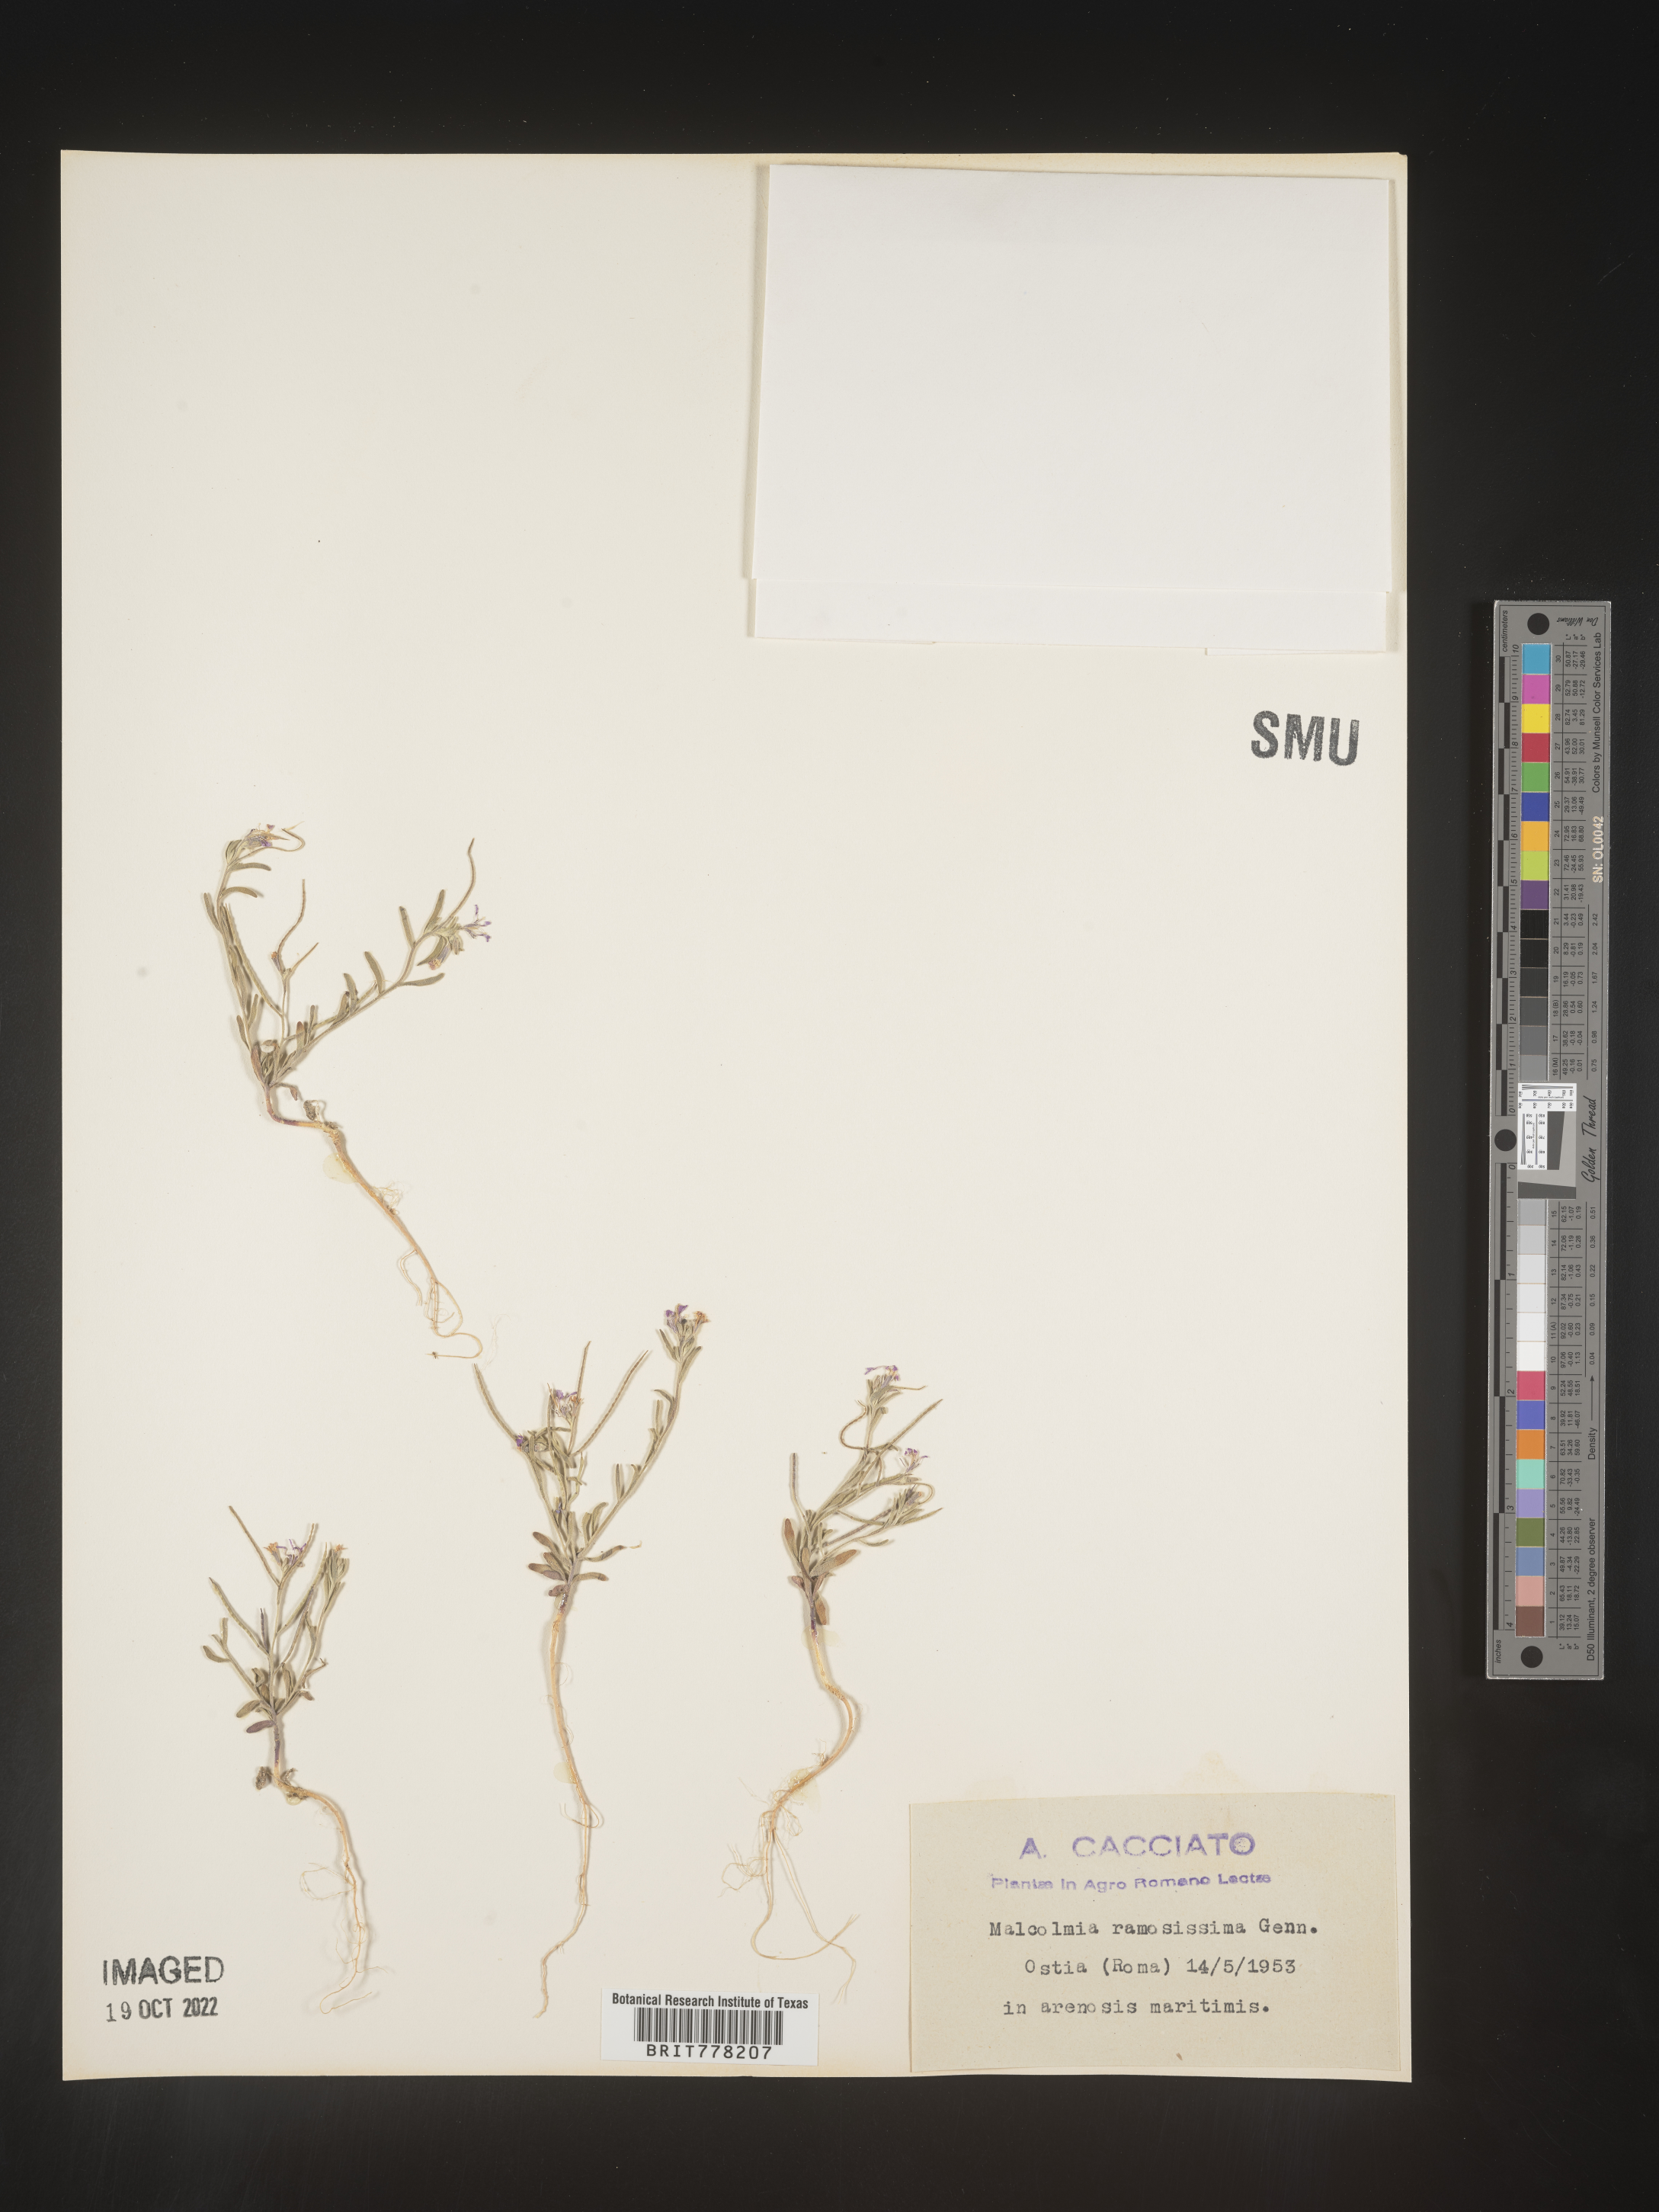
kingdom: Plantae
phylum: Tracheophyta
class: Magnoliopsida
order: Brassicales
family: Brassicaceae
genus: Malcolmia
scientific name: Malcolmia
